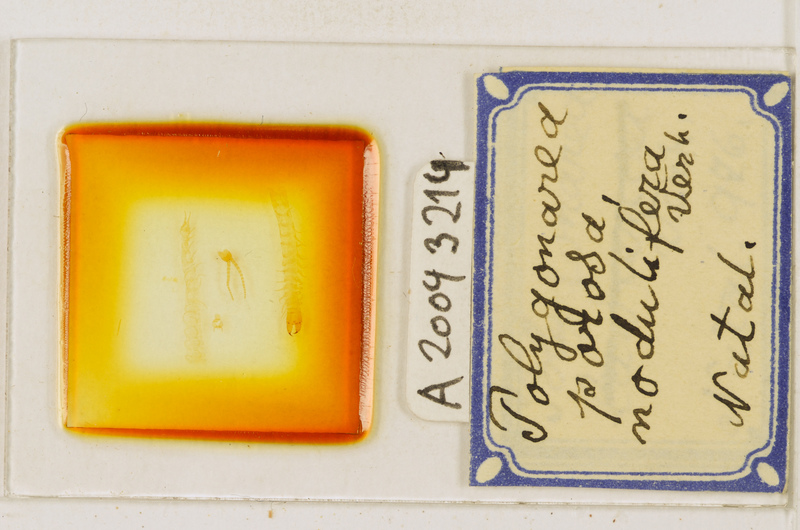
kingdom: Animalia
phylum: Arthropoda
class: Chilopoda
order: Geophilomorpha
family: Geophilidae
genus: Polygonarea
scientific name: Polygonarea africana
